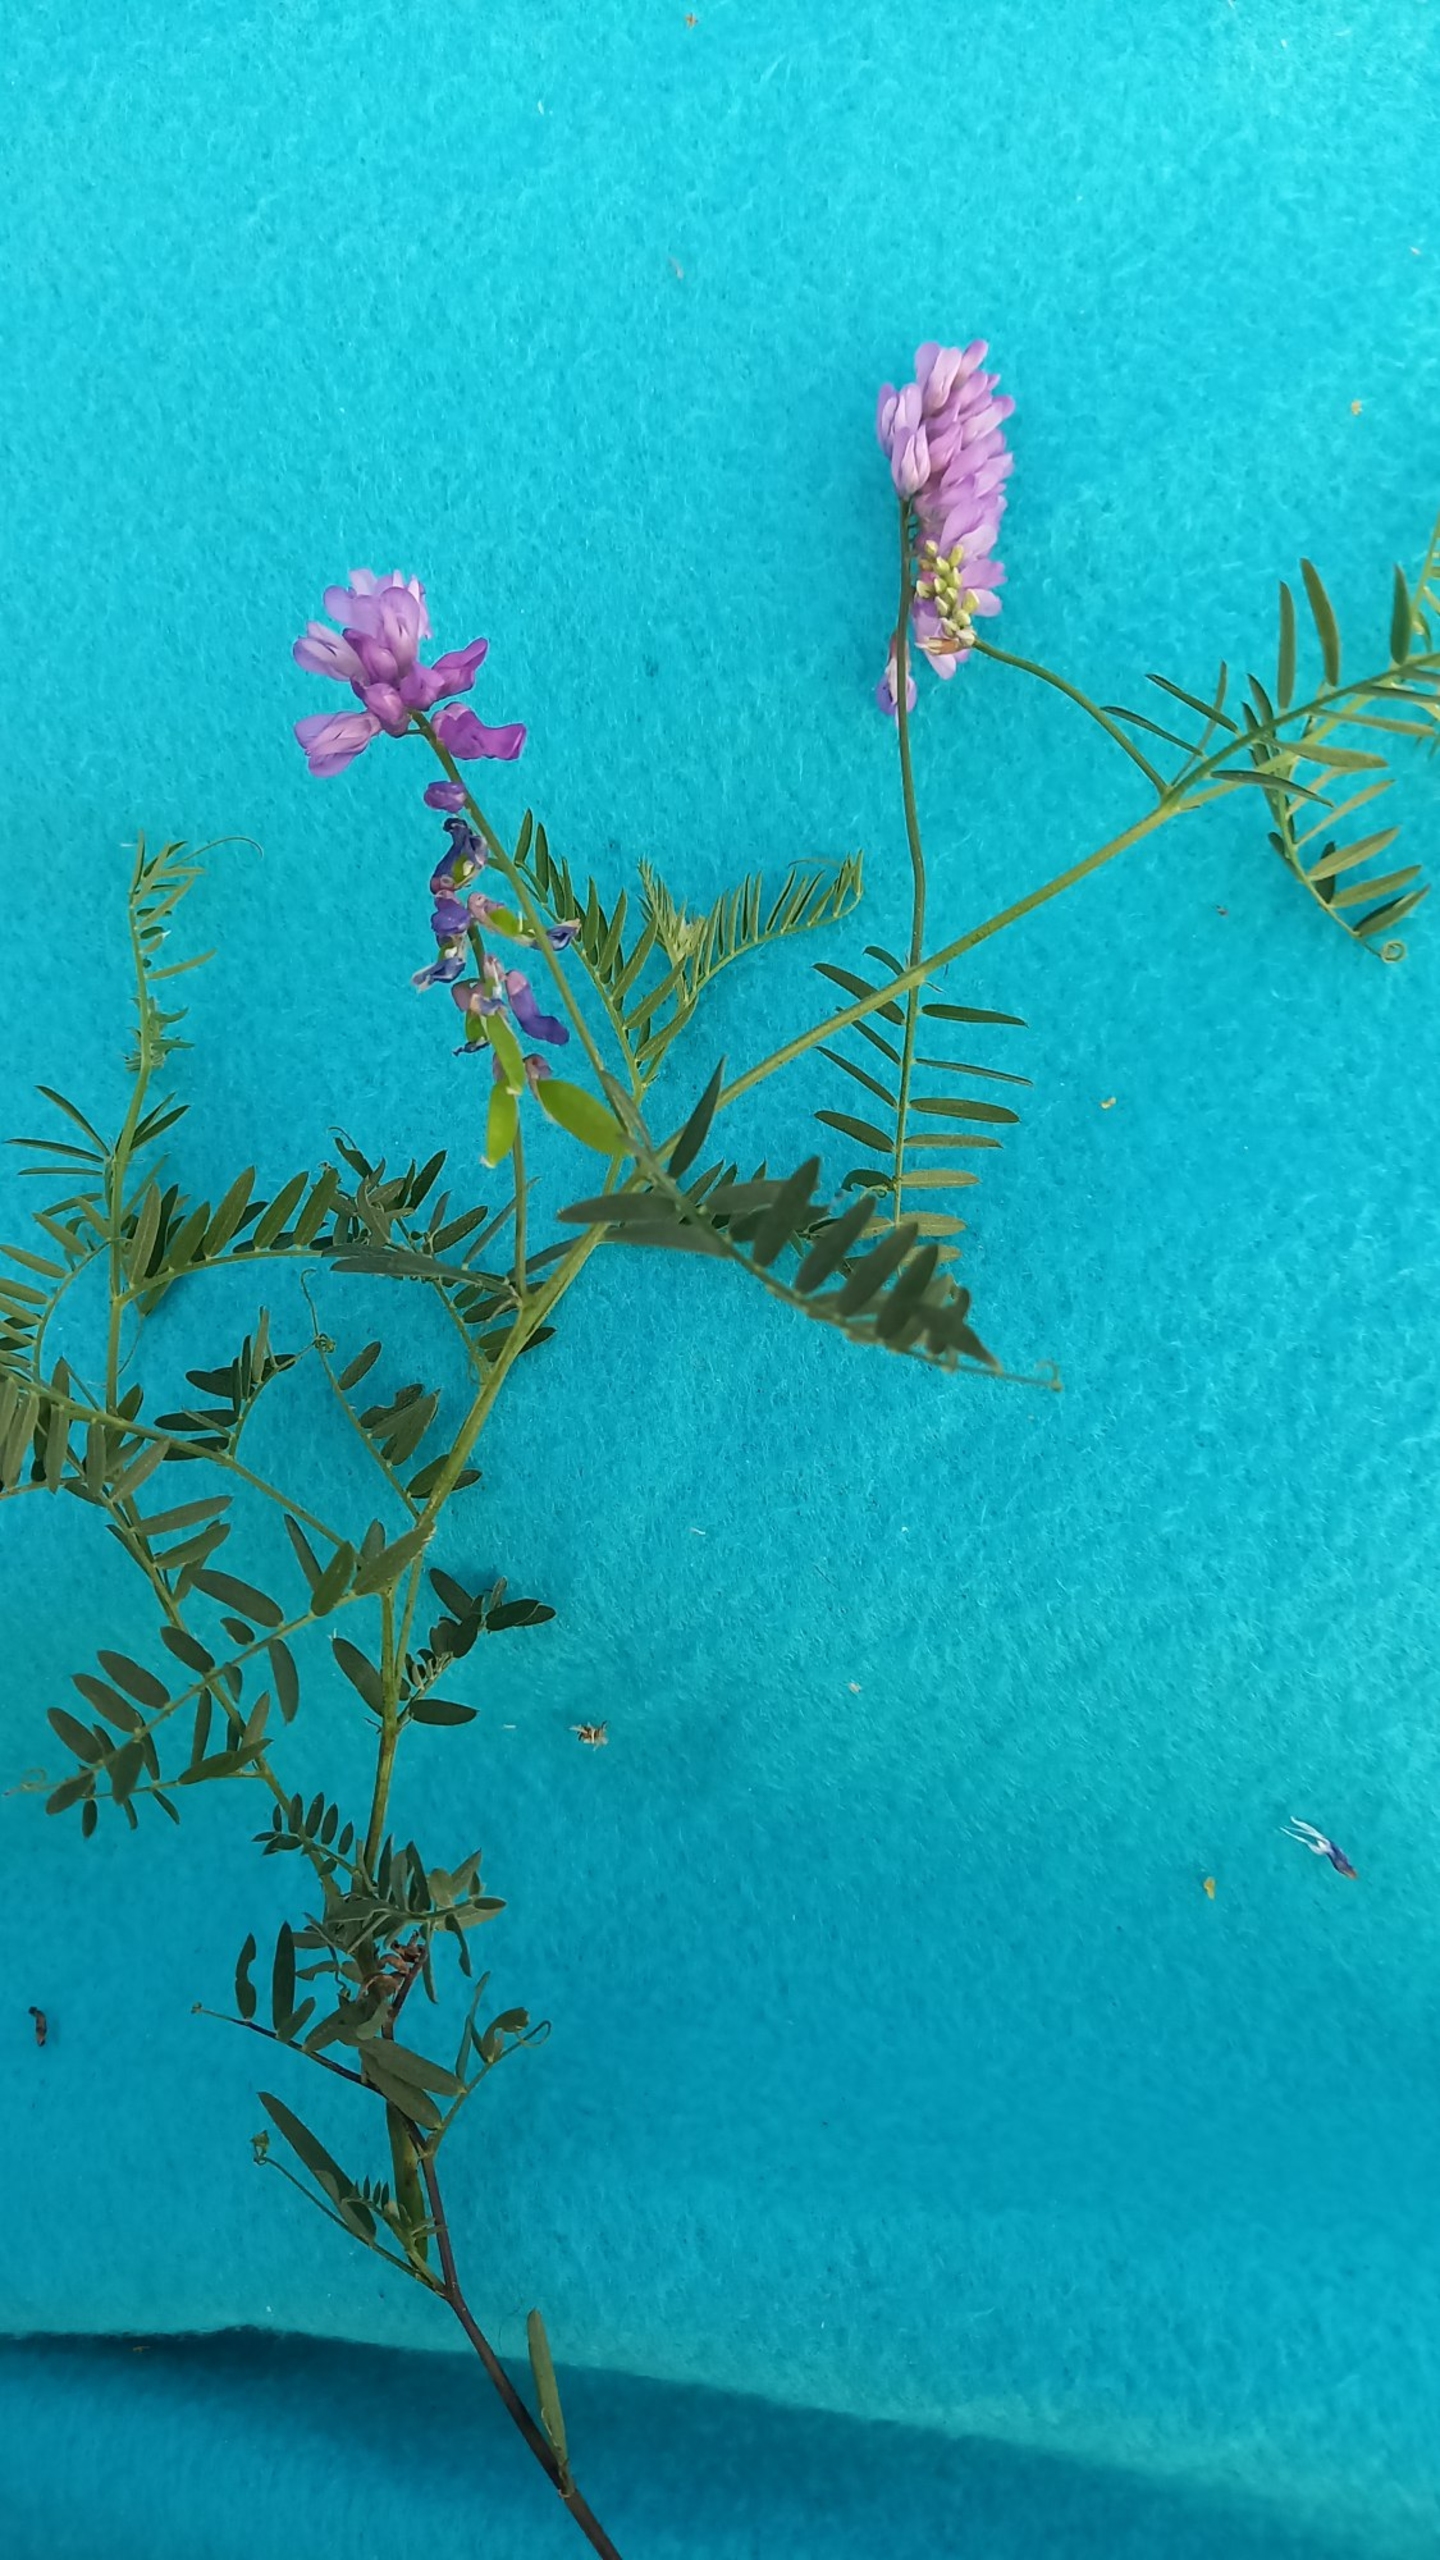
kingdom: Plantae
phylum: Tracheophyta
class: Magnoliopsida
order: Fabales
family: Fabaceae
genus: Vicia
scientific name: Vicia cracca
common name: Muse-vikke
